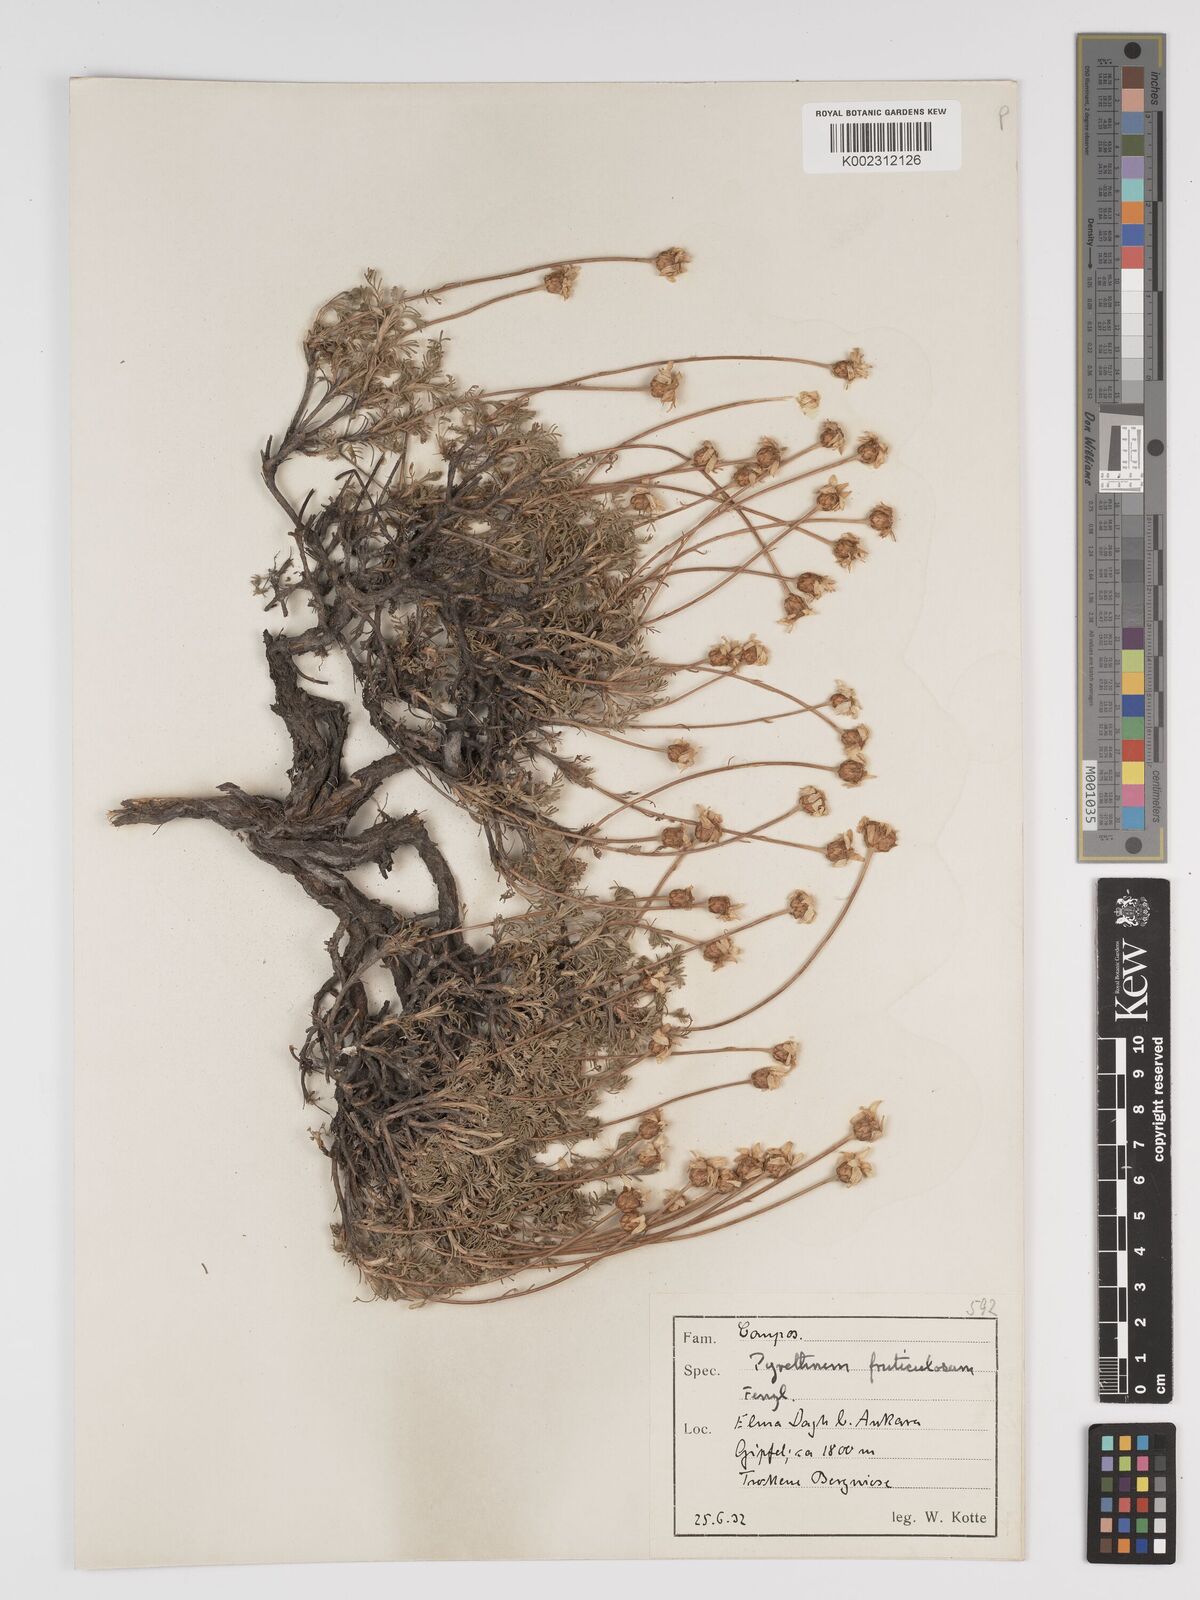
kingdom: Plantae
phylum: Tracheophyta
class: Magnoliopsida
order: Asterales
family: Asteraceae
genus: Ajania
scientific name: Ajania fruticulosa
